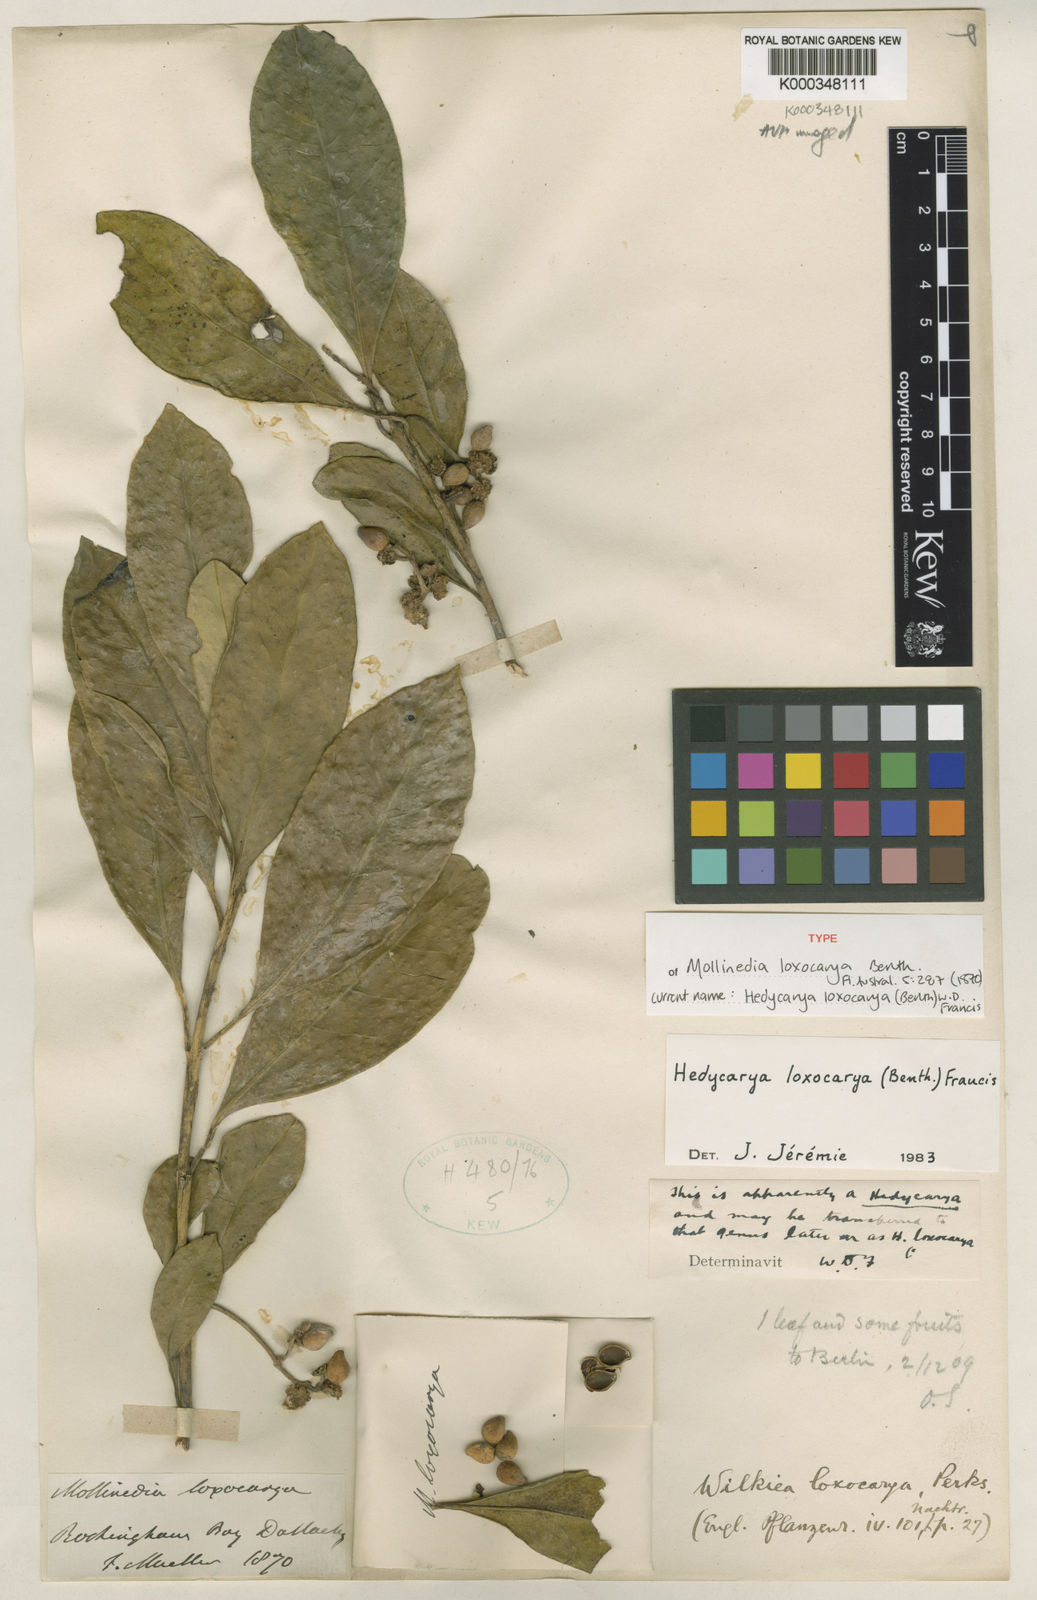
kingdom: Plantae
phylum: Tracheophyta
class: Magnoliopsida
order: Laurales
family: Monimiaceae
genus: Hedycarya
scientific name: Hedycarya loxocarya
